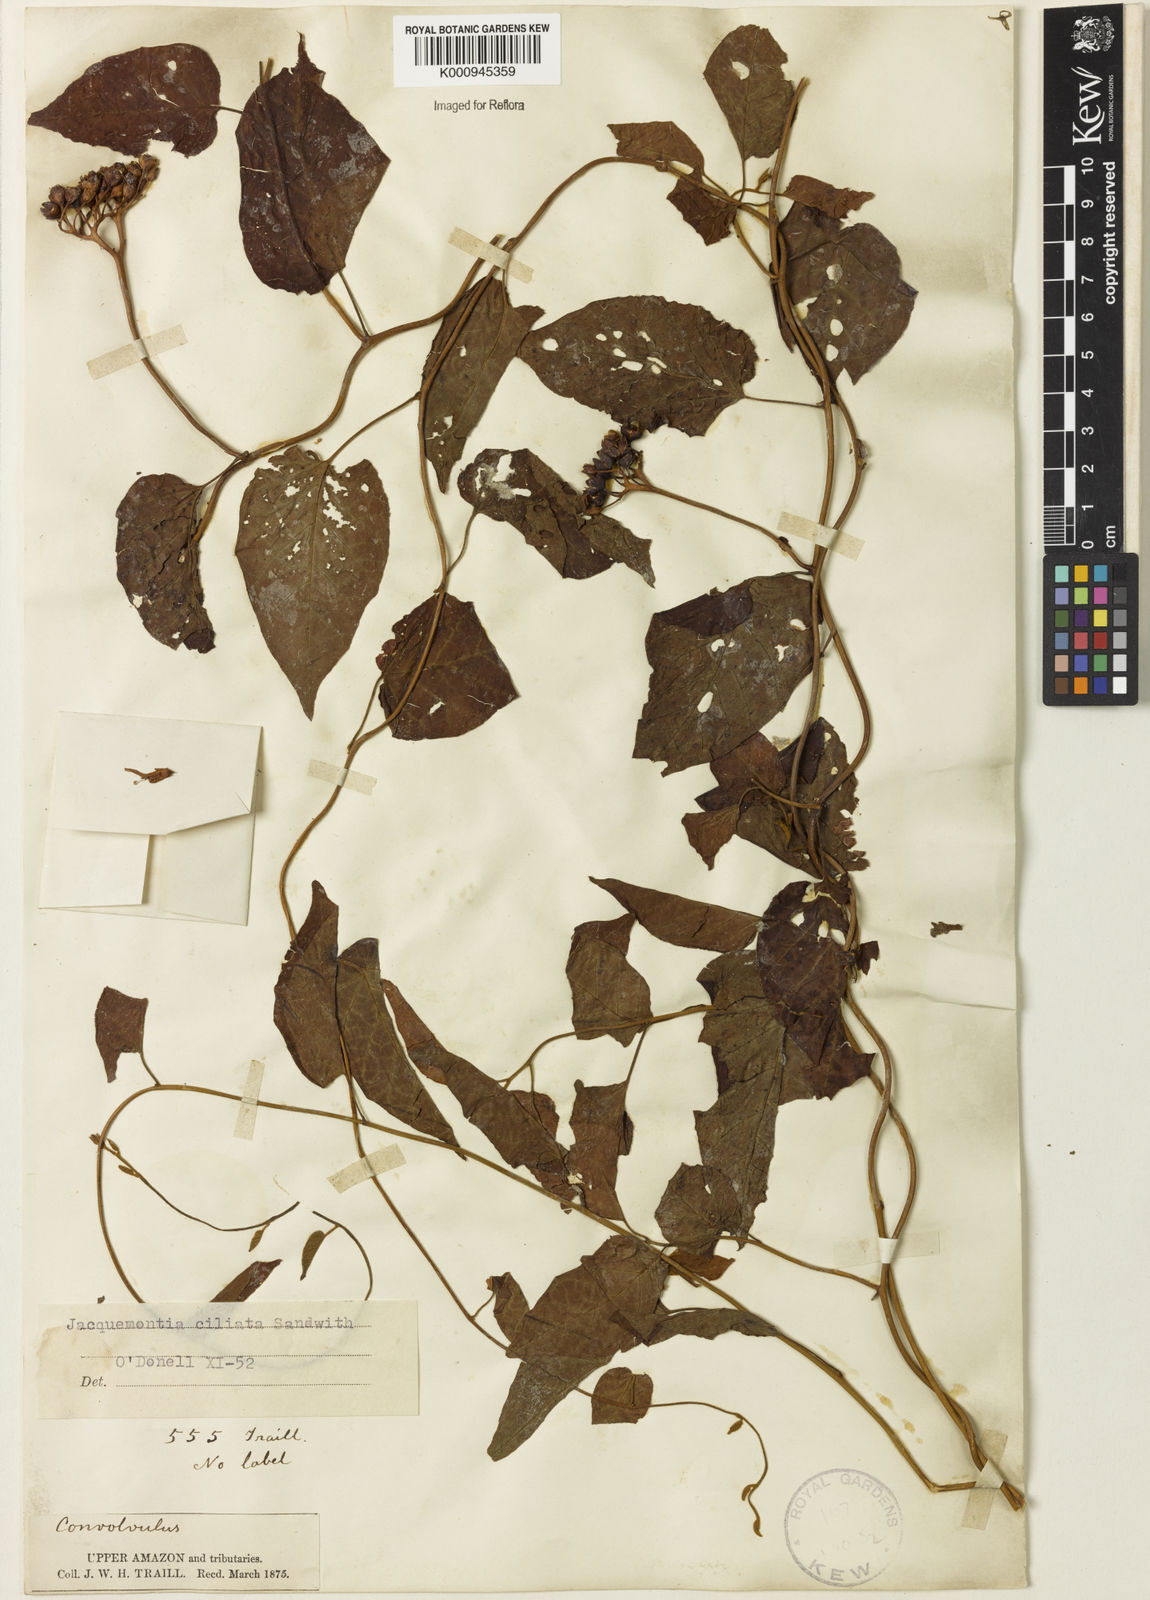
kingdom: Plantae
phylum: Tracheophyta
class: Magnoliopsida
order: Solanales
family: Convolvulaceae
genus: Jacquemontia
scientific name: Jacquemontia gabrielii
